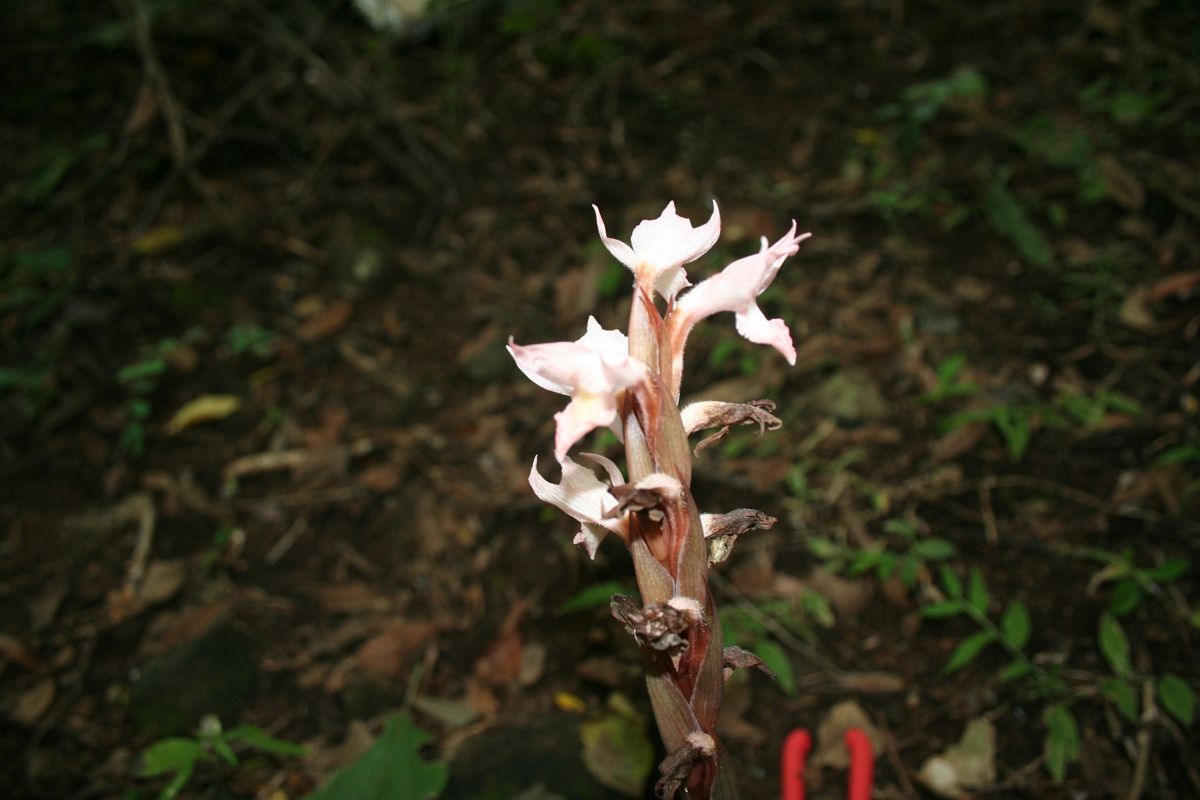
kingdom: Plantae
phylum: Tracheophyta
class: Liliopsida
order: Asparagales
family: Orchidaceae
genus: Pteroglossa
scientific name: Pteroglossa roseoalba
